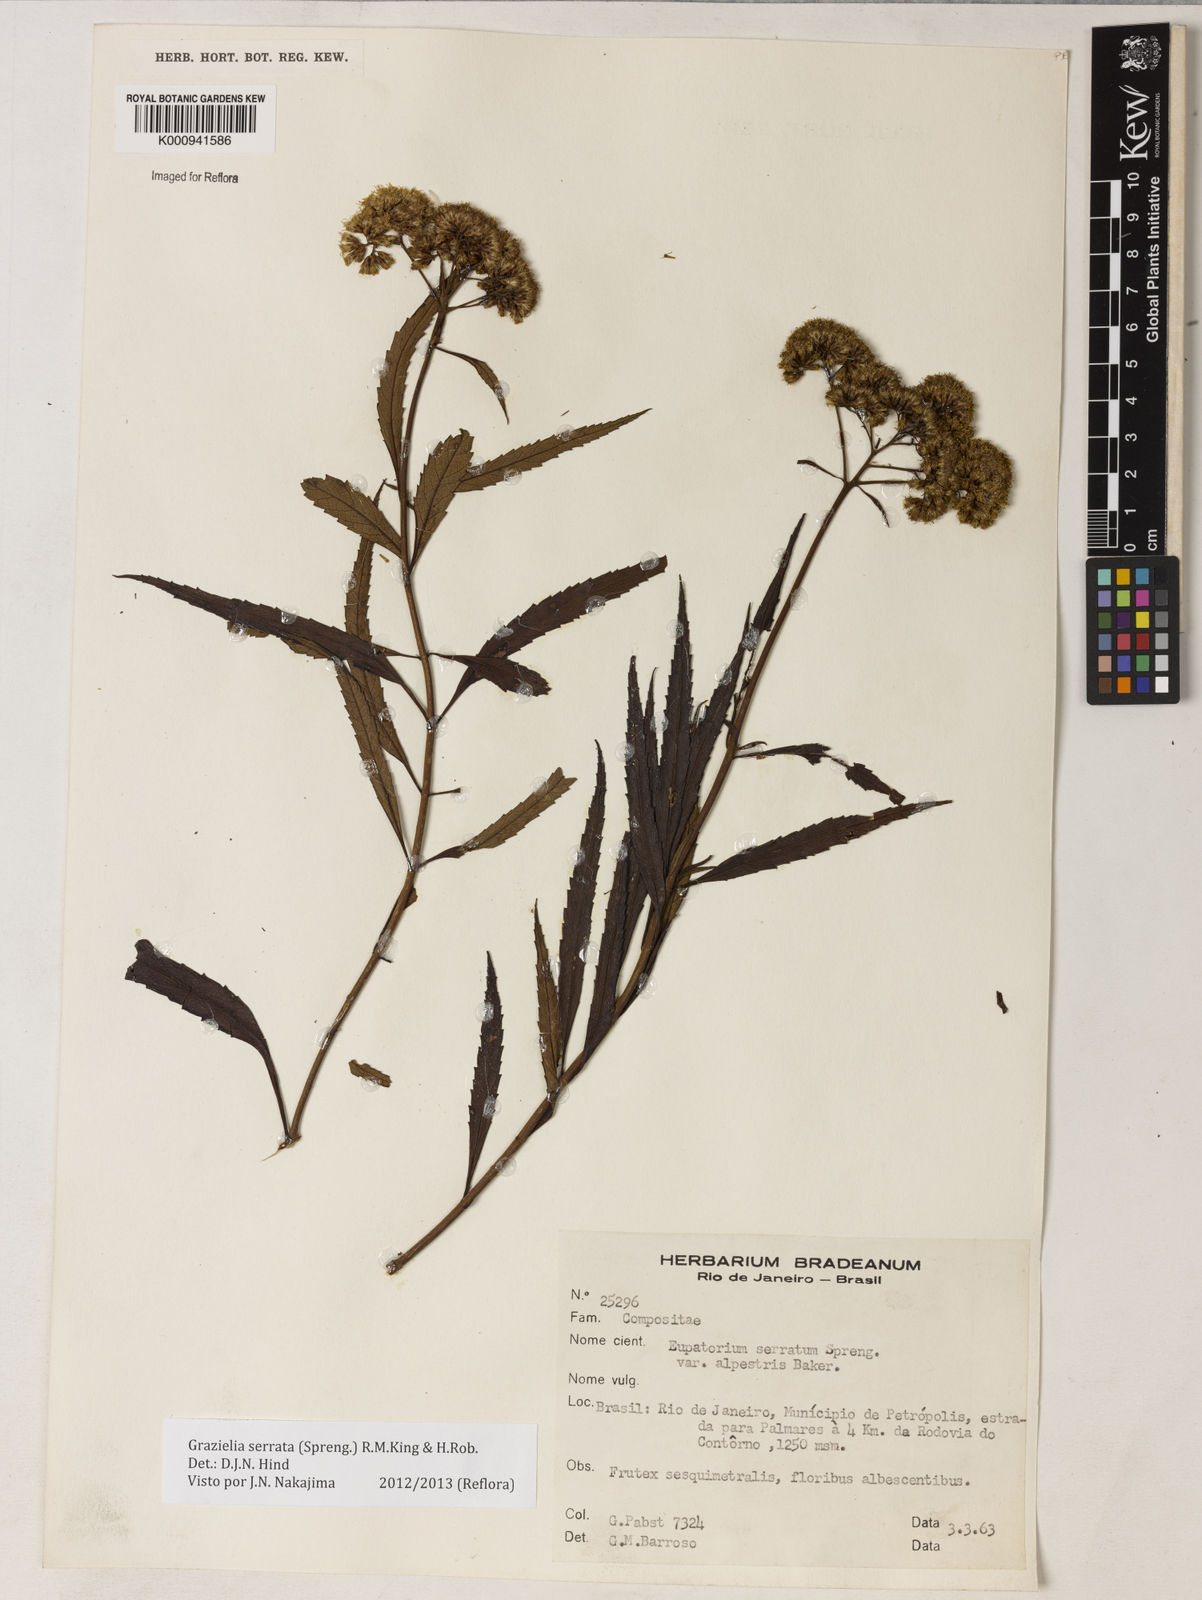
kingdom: Plantae
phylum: Tracheophyta
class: Magnoliopsida
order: Asterales
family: Asteraceae
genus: Grazielia
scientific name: Grazielia serrata
